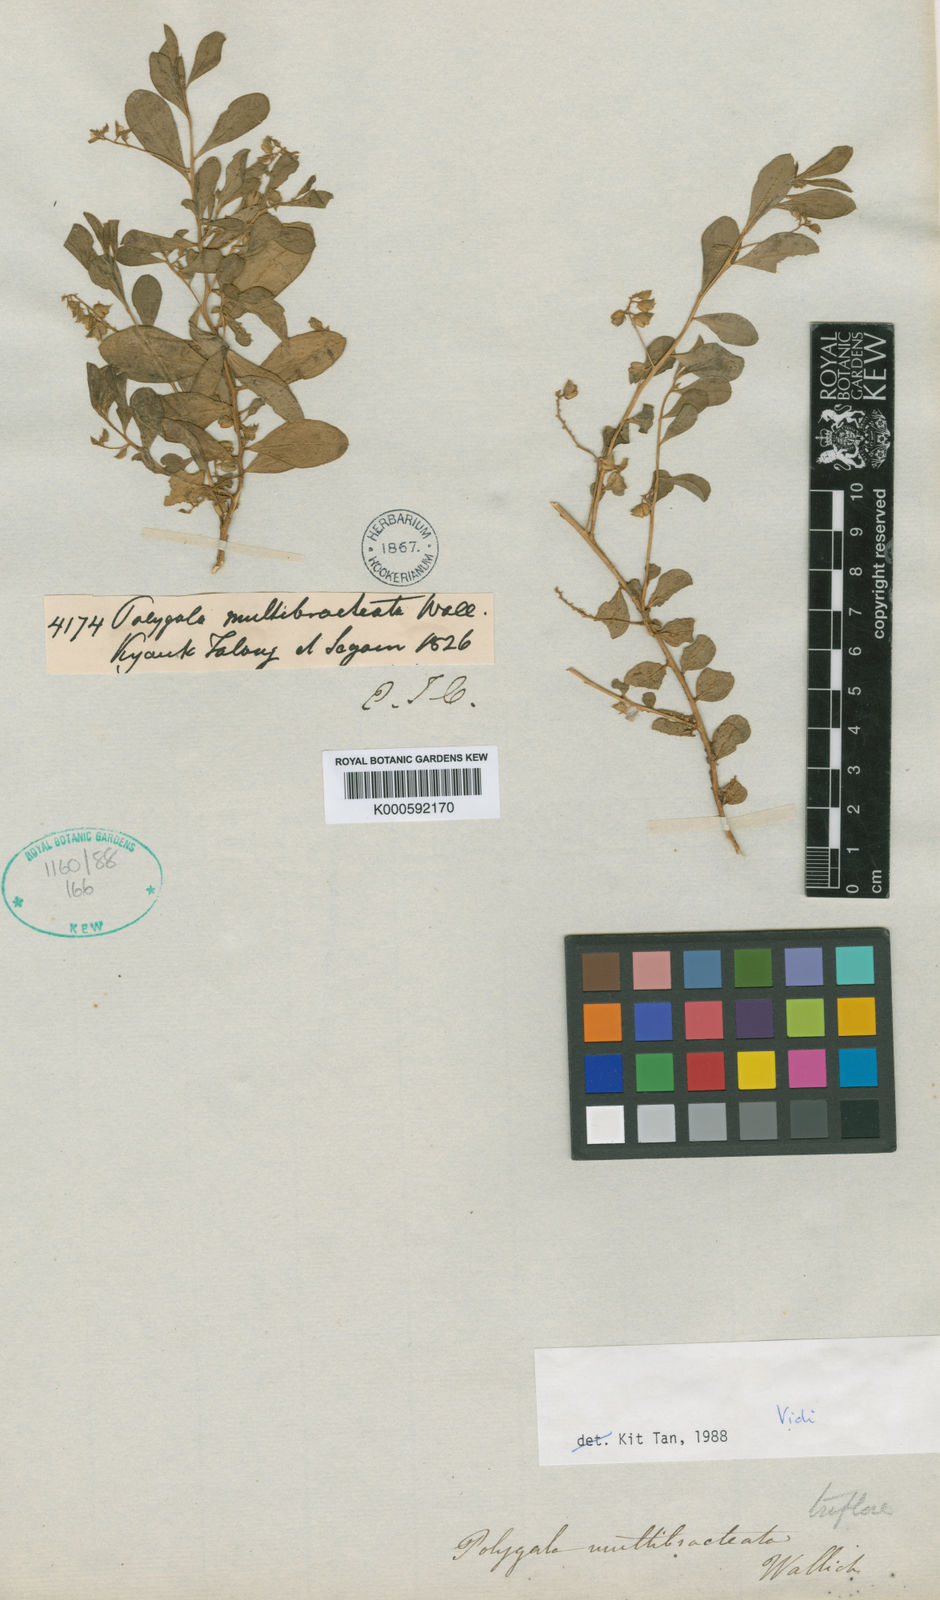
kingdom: Plantae
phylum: Tracheophyta
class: Magnoliopsida
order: Fabales
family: Polygalaceae
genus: Polygala
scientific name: Polygala glomerata
